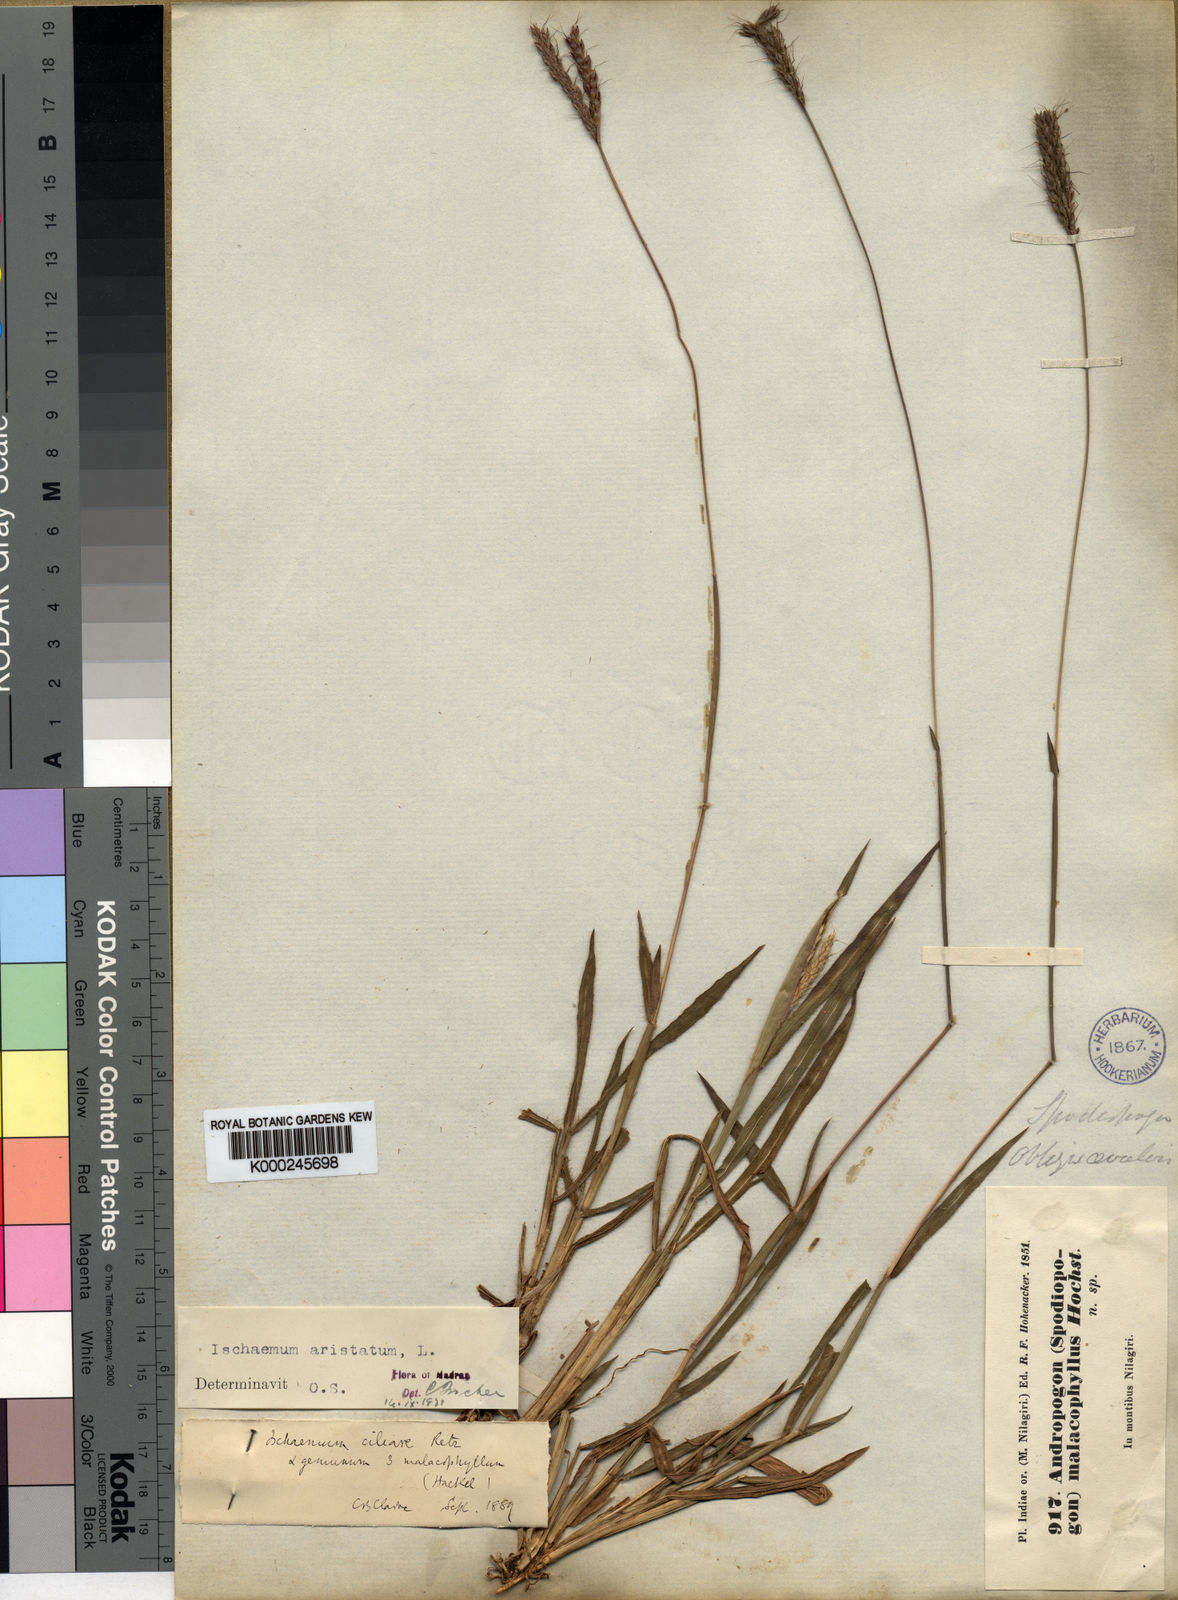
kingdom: Plantae
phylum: Tracheophyta
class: Liliopsida
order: Poales
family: Poaceae
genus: Polytrias
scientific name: Polytrias indica
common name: Indian murainagrass
